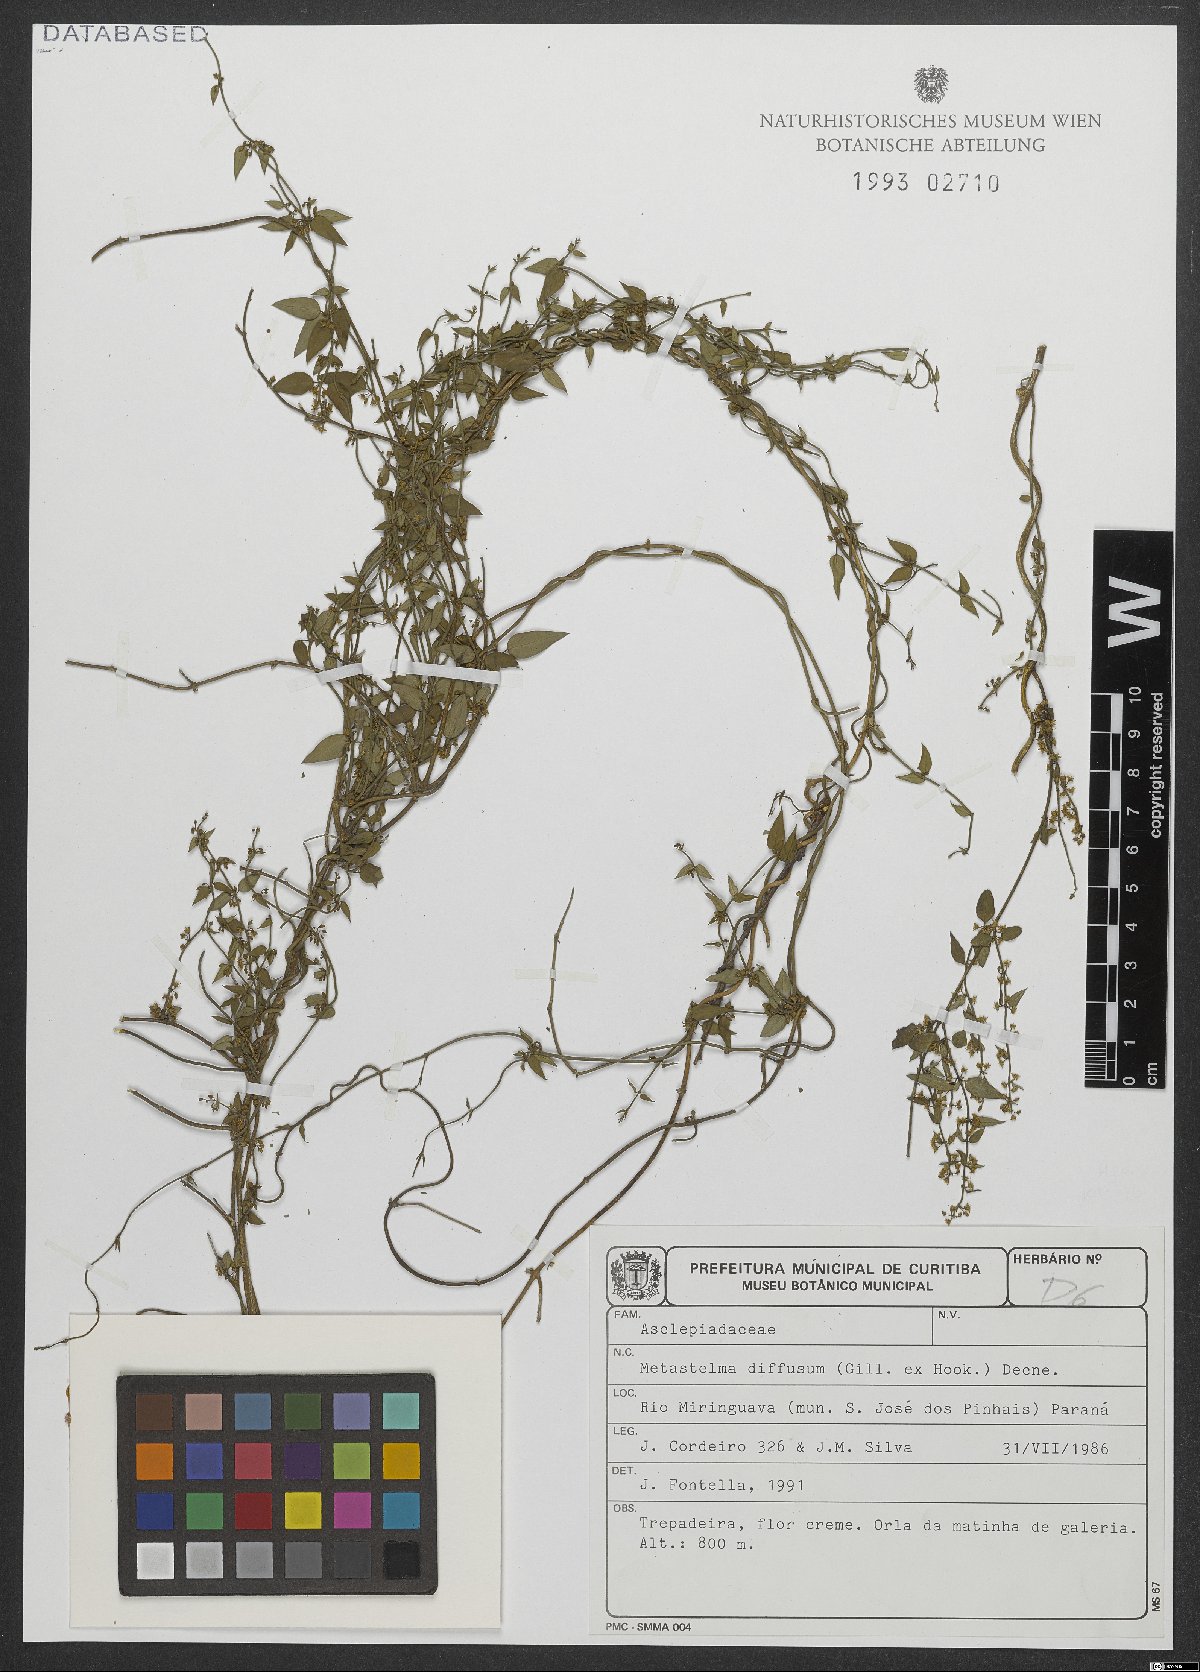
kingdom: Plantae
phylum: Tracheophyta
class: Magnoliopsida
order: Gentianales
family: Apocynaceae
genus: Orthosia
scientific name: Orthosia virgata
